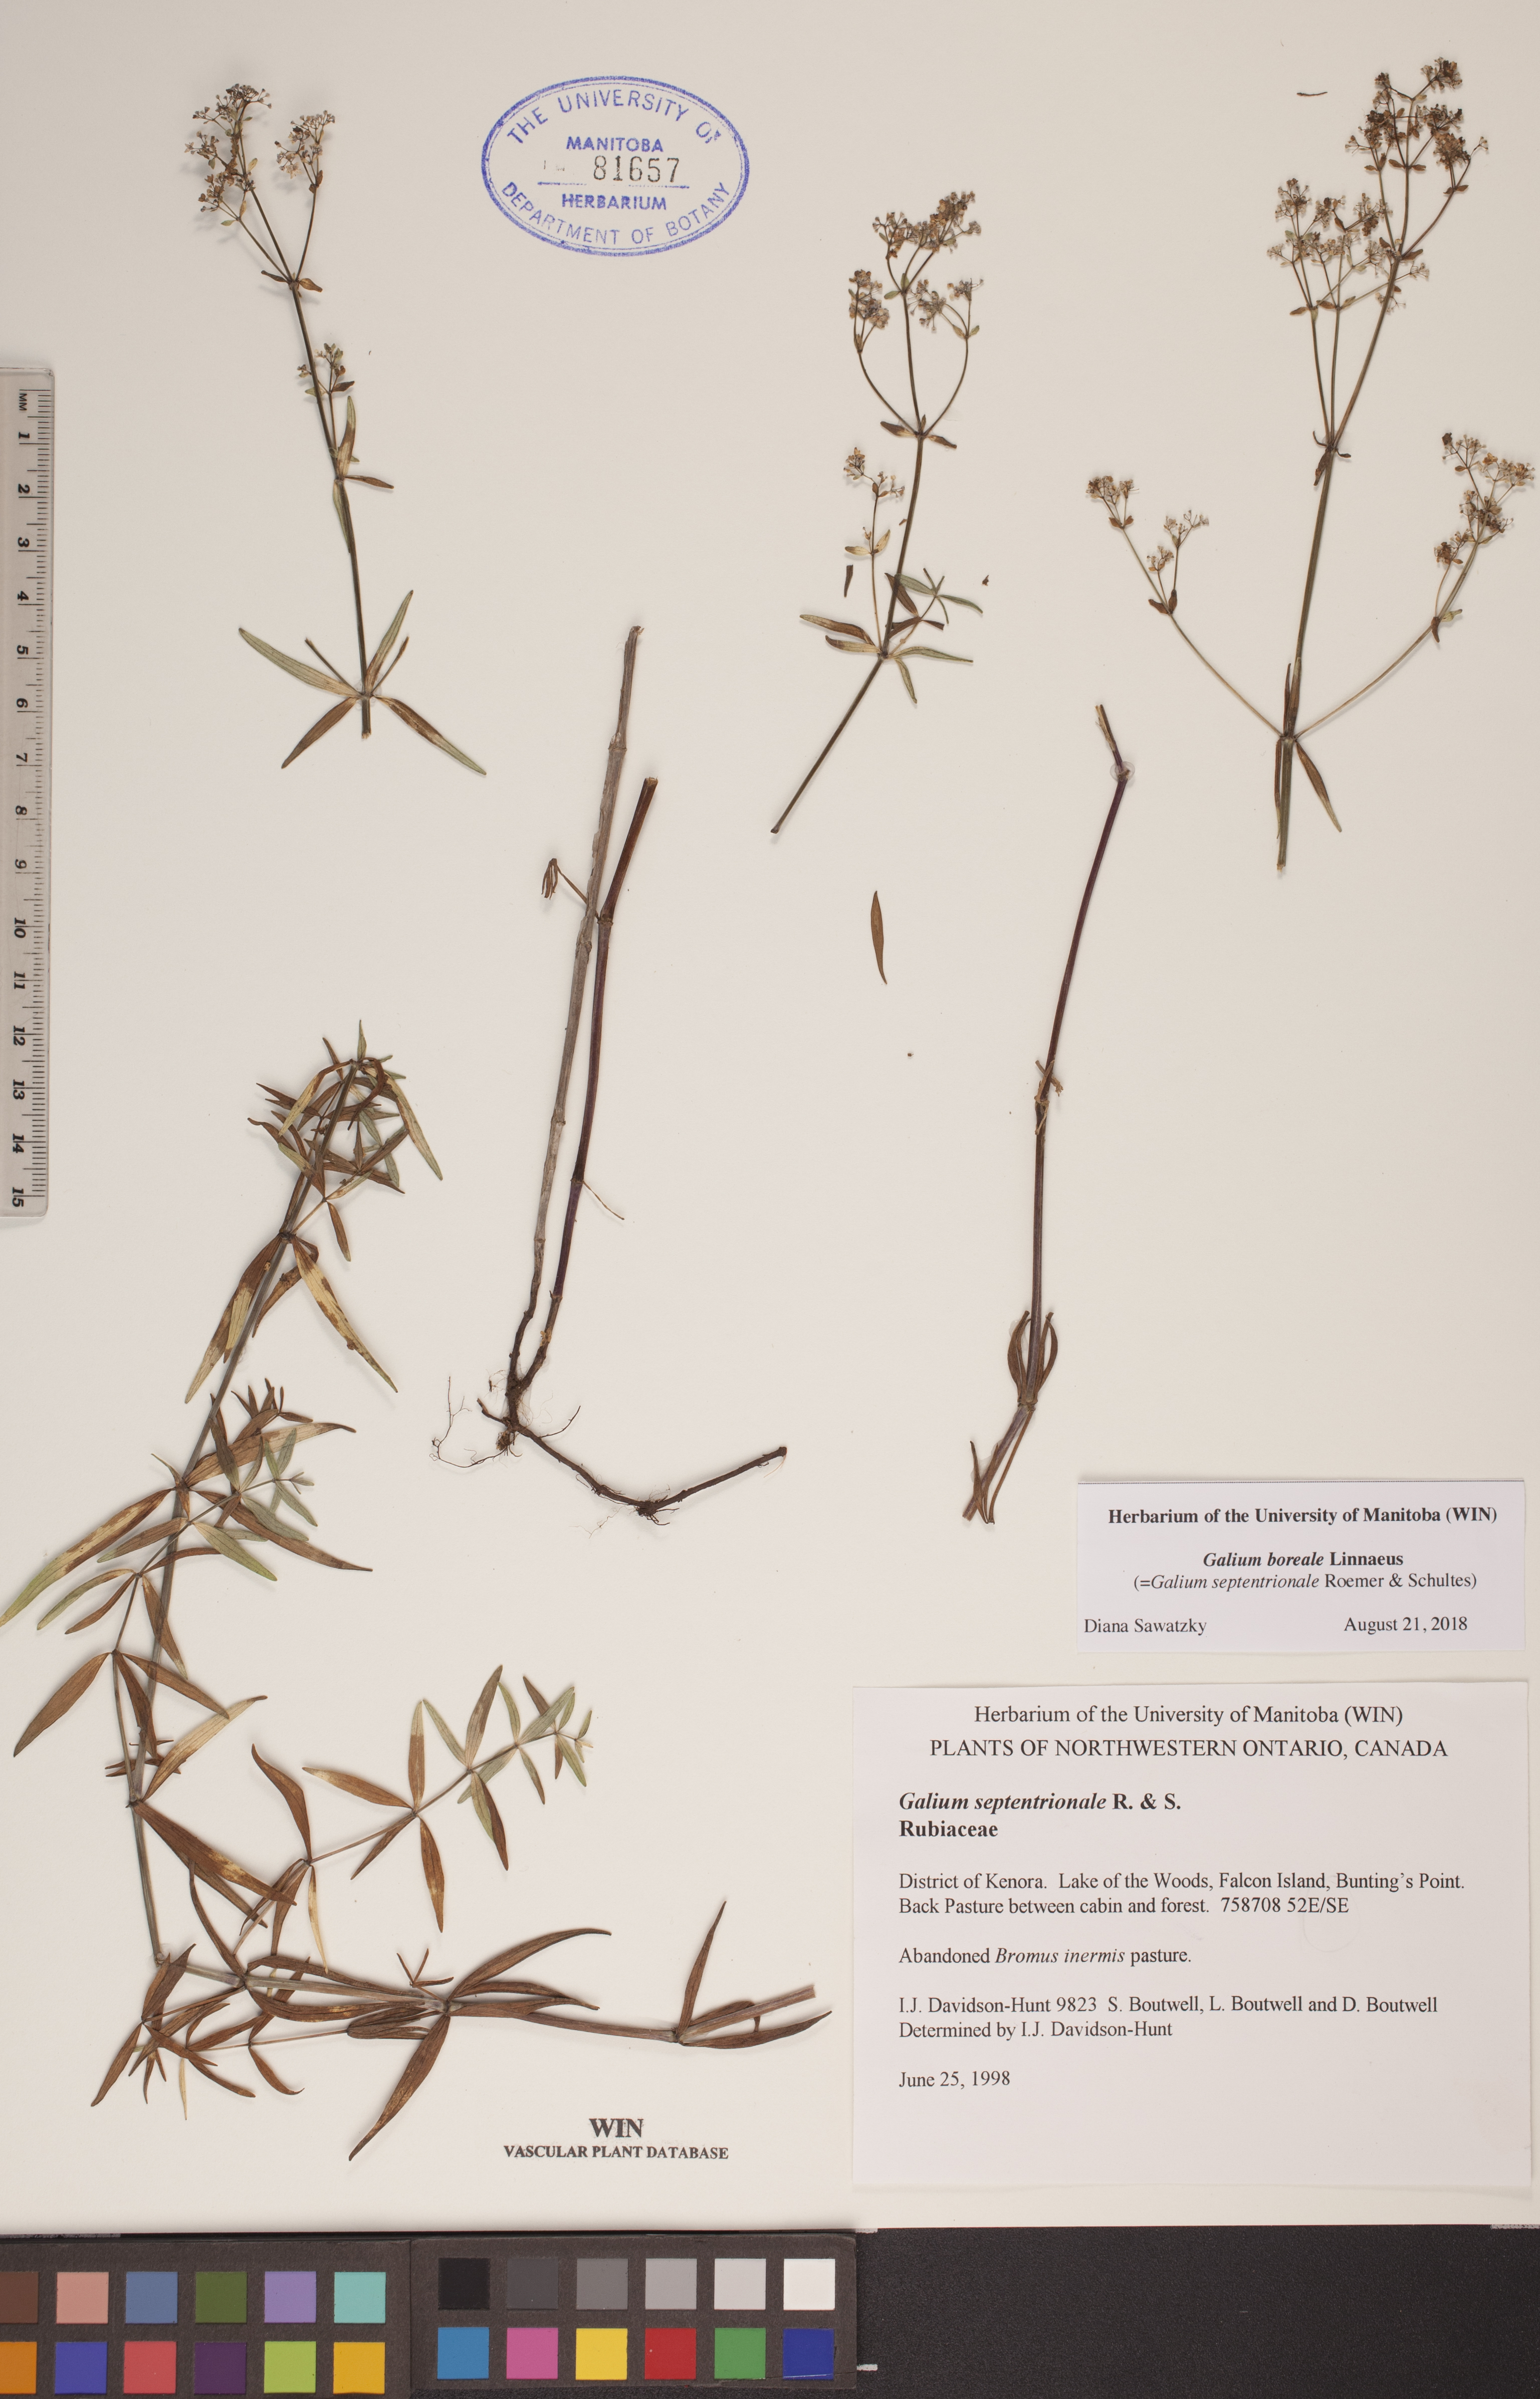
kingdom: Plantae
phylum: Tracheophyta
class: Magnoliopsida
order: Gentianales
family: Rubiaceae
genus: Galium
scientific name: Galium boreale
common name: Northern bedstraw
